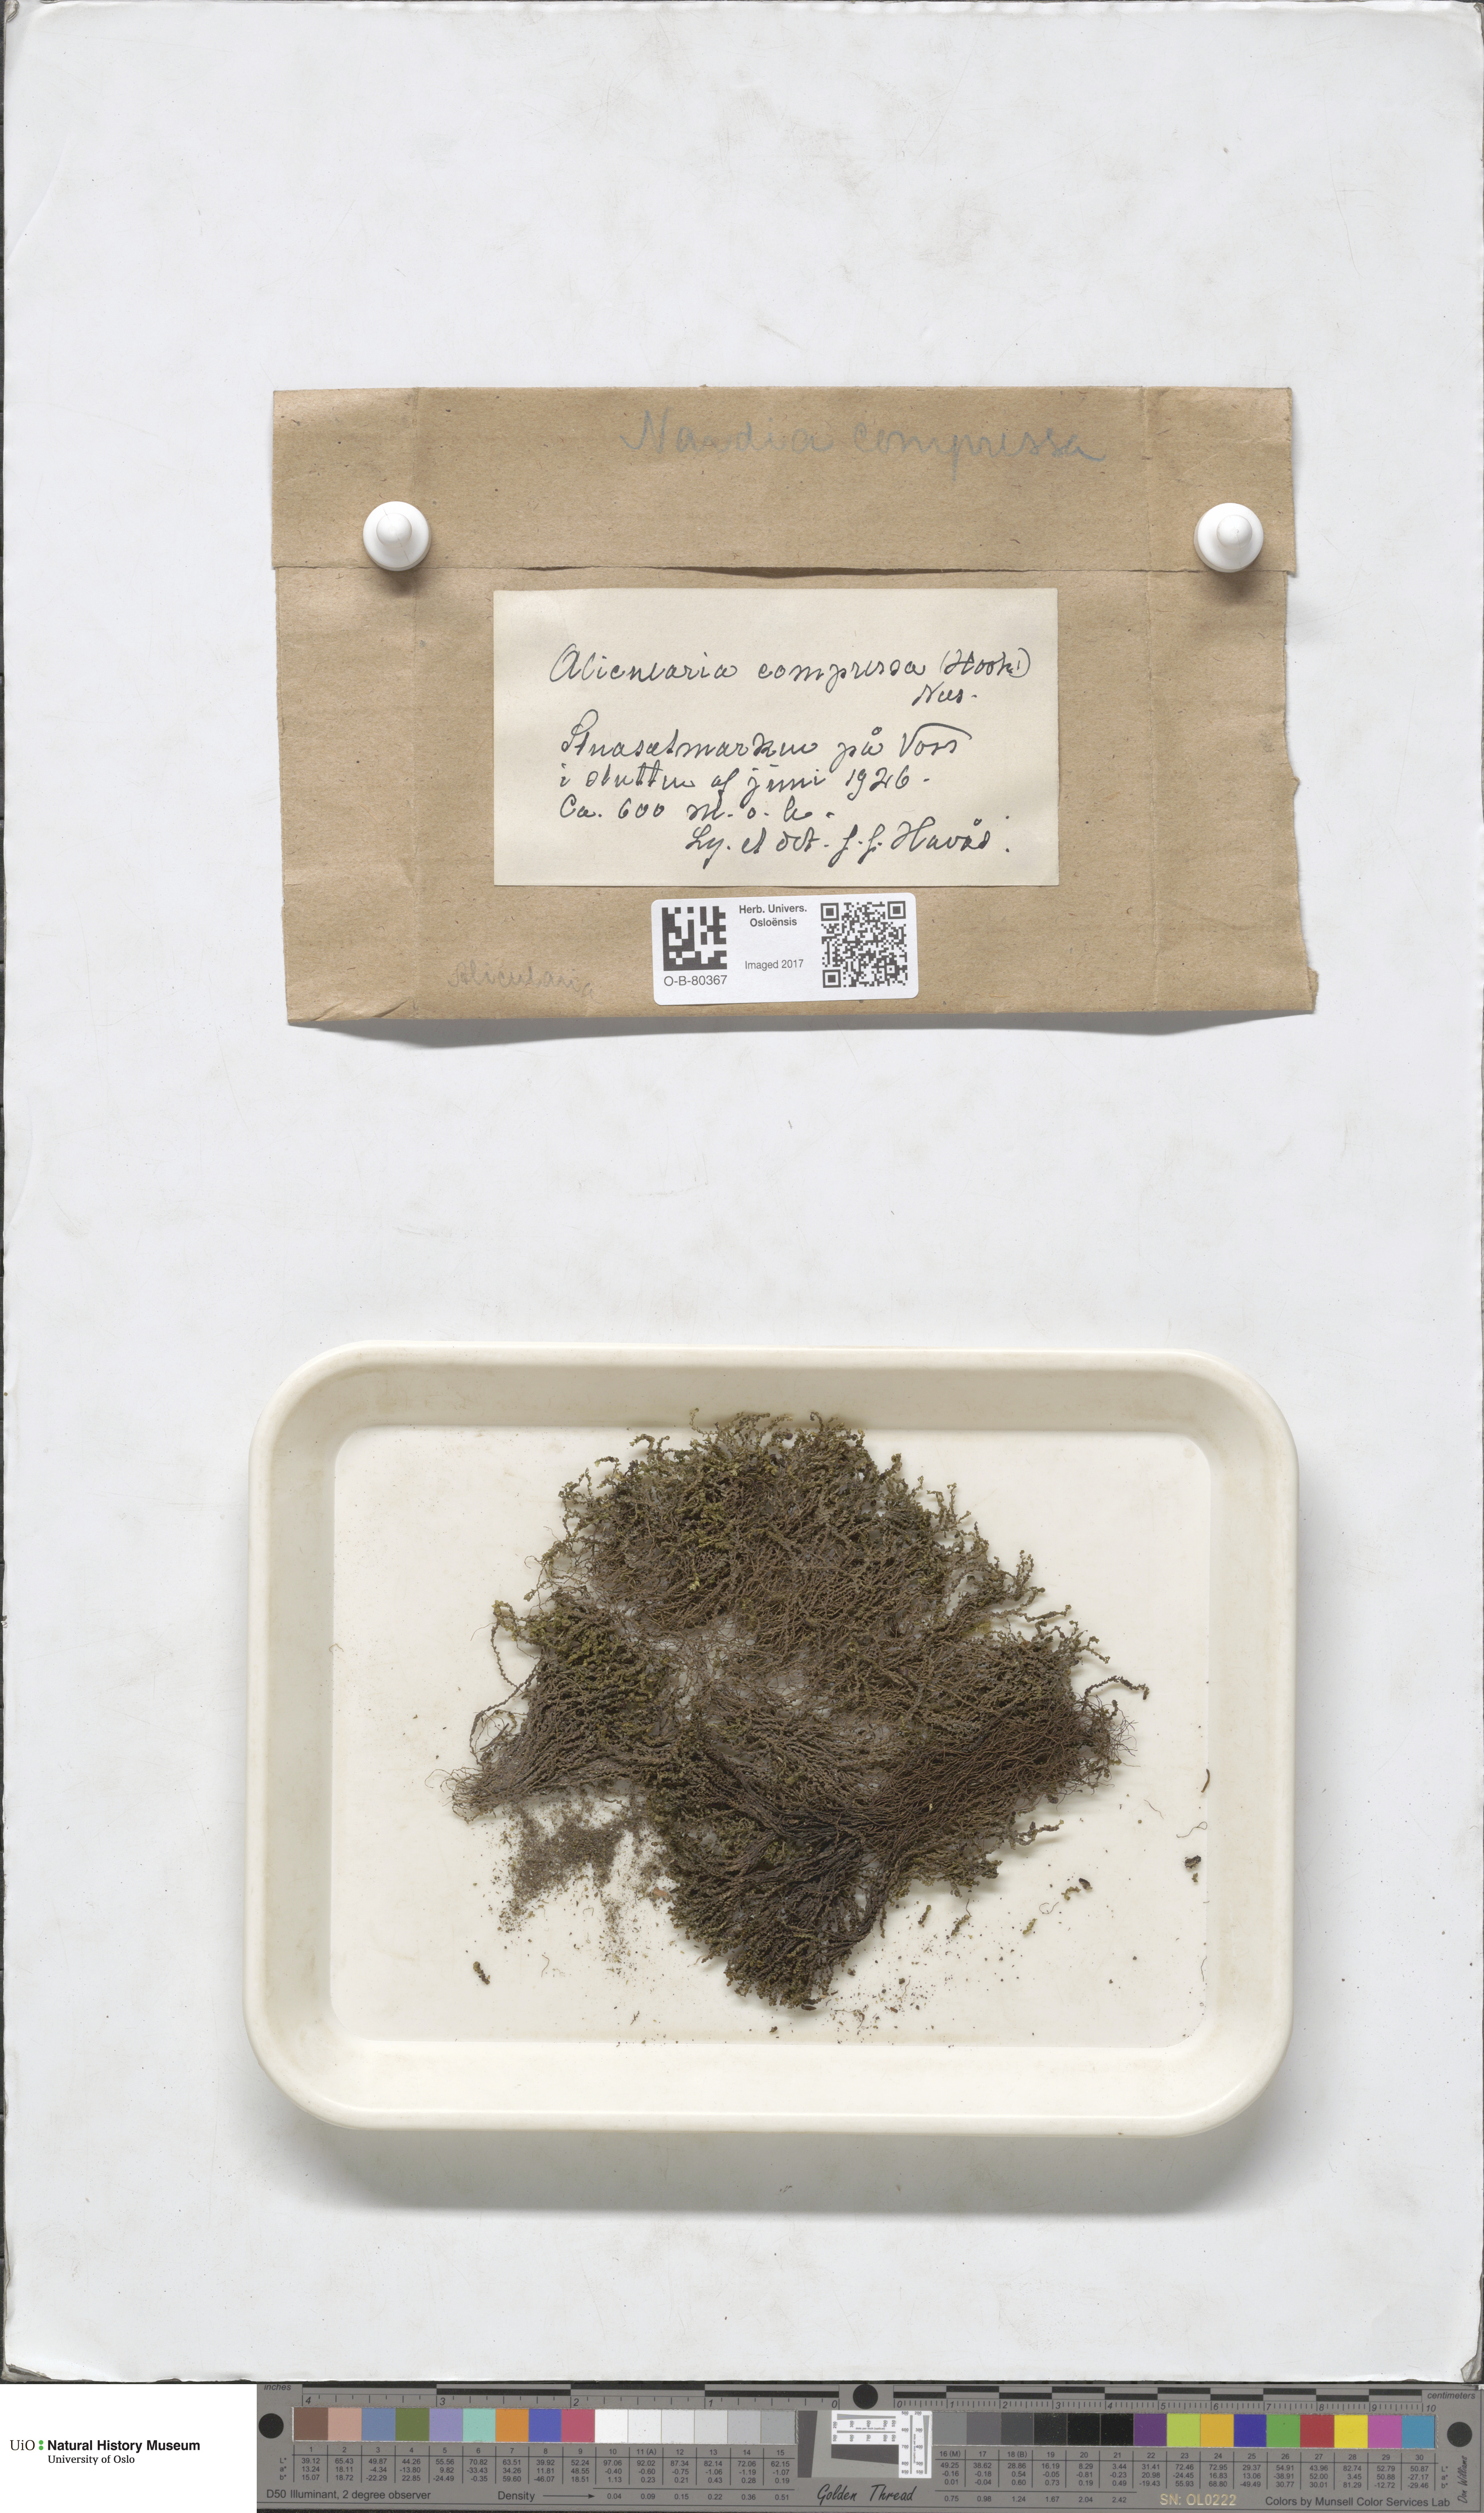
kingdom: Plantae
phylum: Marchantiophyta
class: Jungermanniopsida
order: Jungermanniales
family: Gymnomitriaceae
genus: Nardia
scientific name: Nardia compressa
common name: Compressed flapwort
